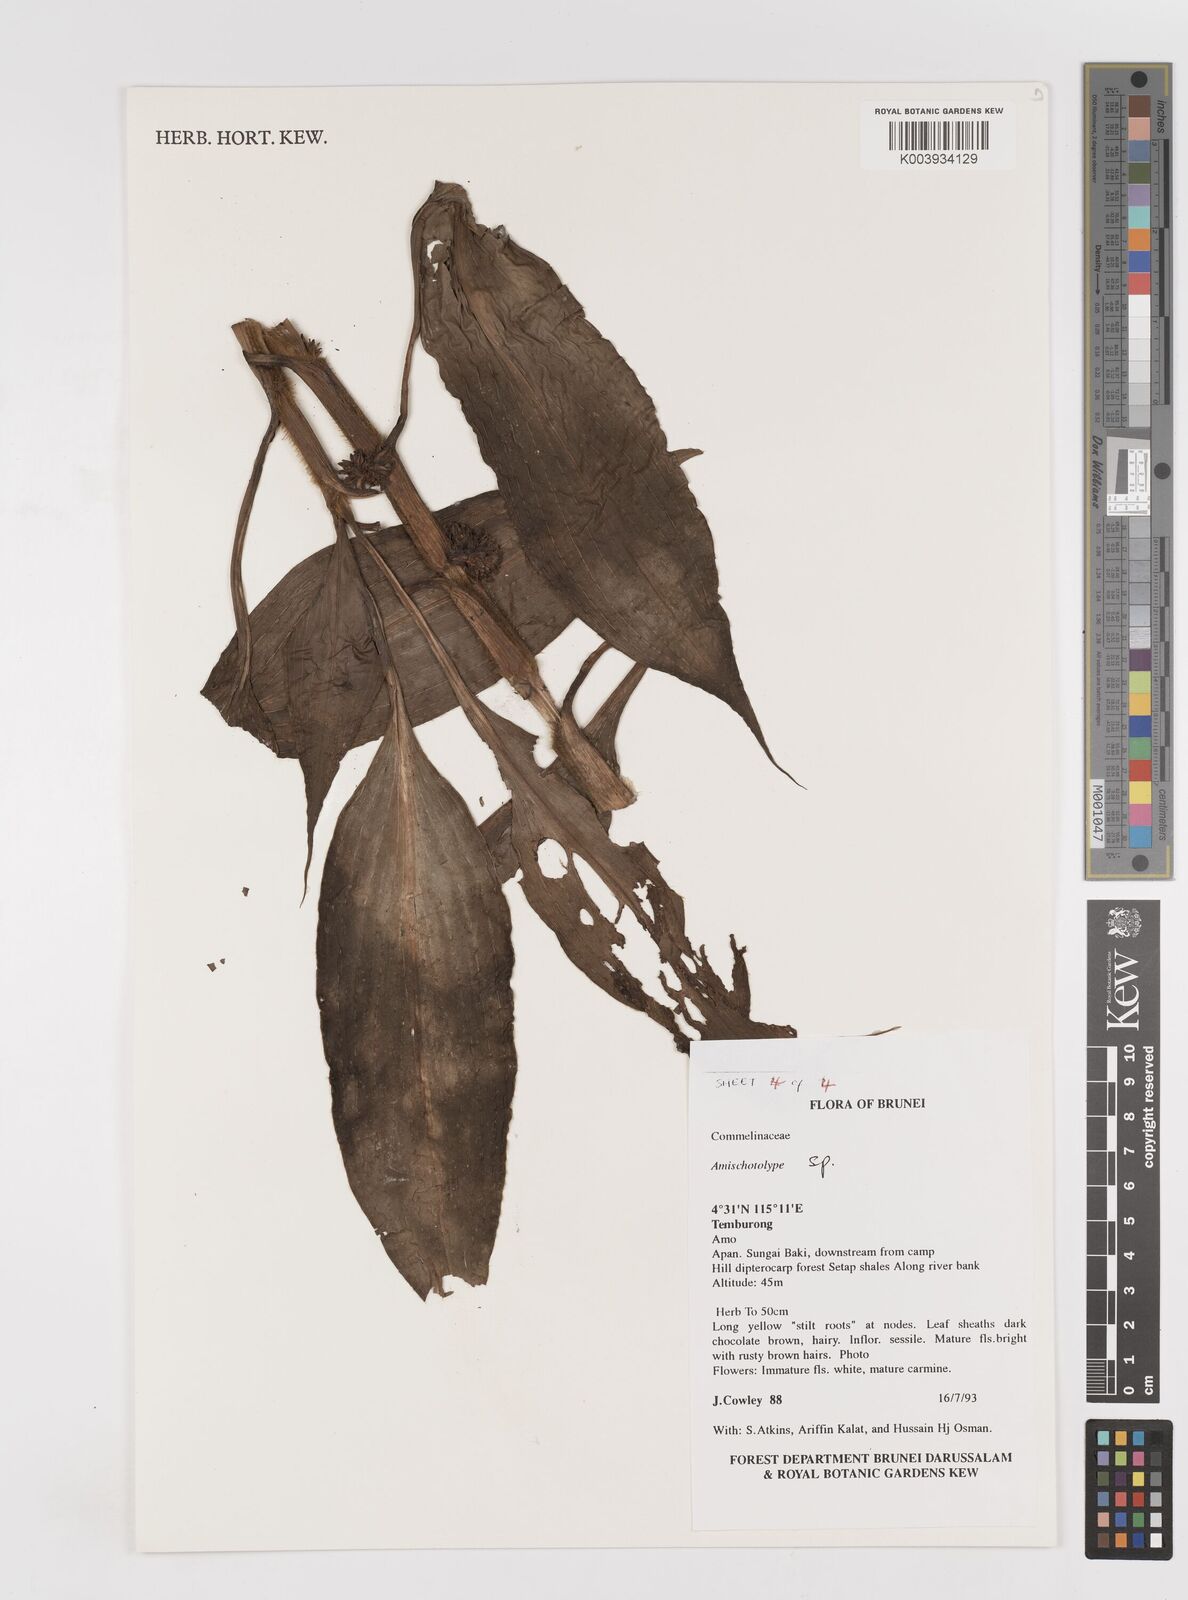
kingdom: Plantae
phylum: Tracheophyta
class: Liliopsida
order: Commelinales
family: Commelinaceae
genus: Amischotolype
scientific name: Amischotolype
